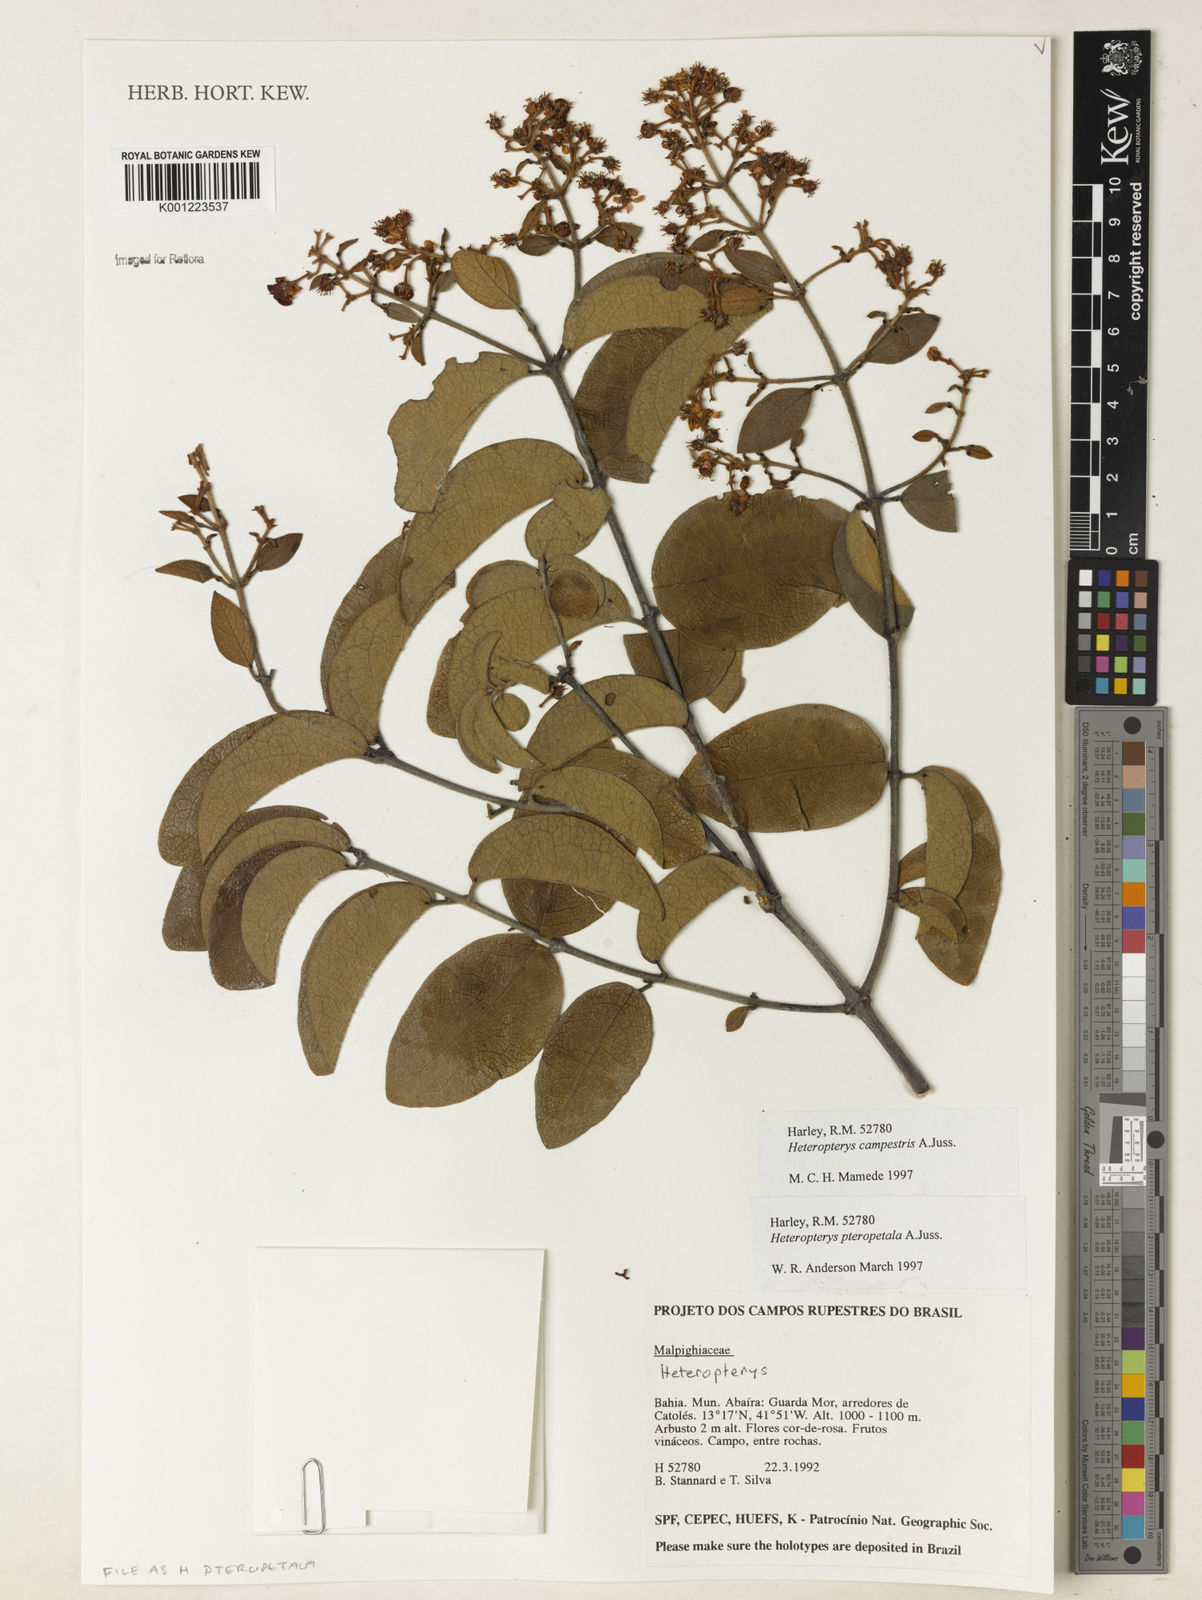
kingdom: Plantae
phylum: Tracheophyta
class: Magnoliopsida
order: Malpighiales
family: Malpighiaceae
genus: Heteropterys
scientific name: Heteropterys pteropetala
